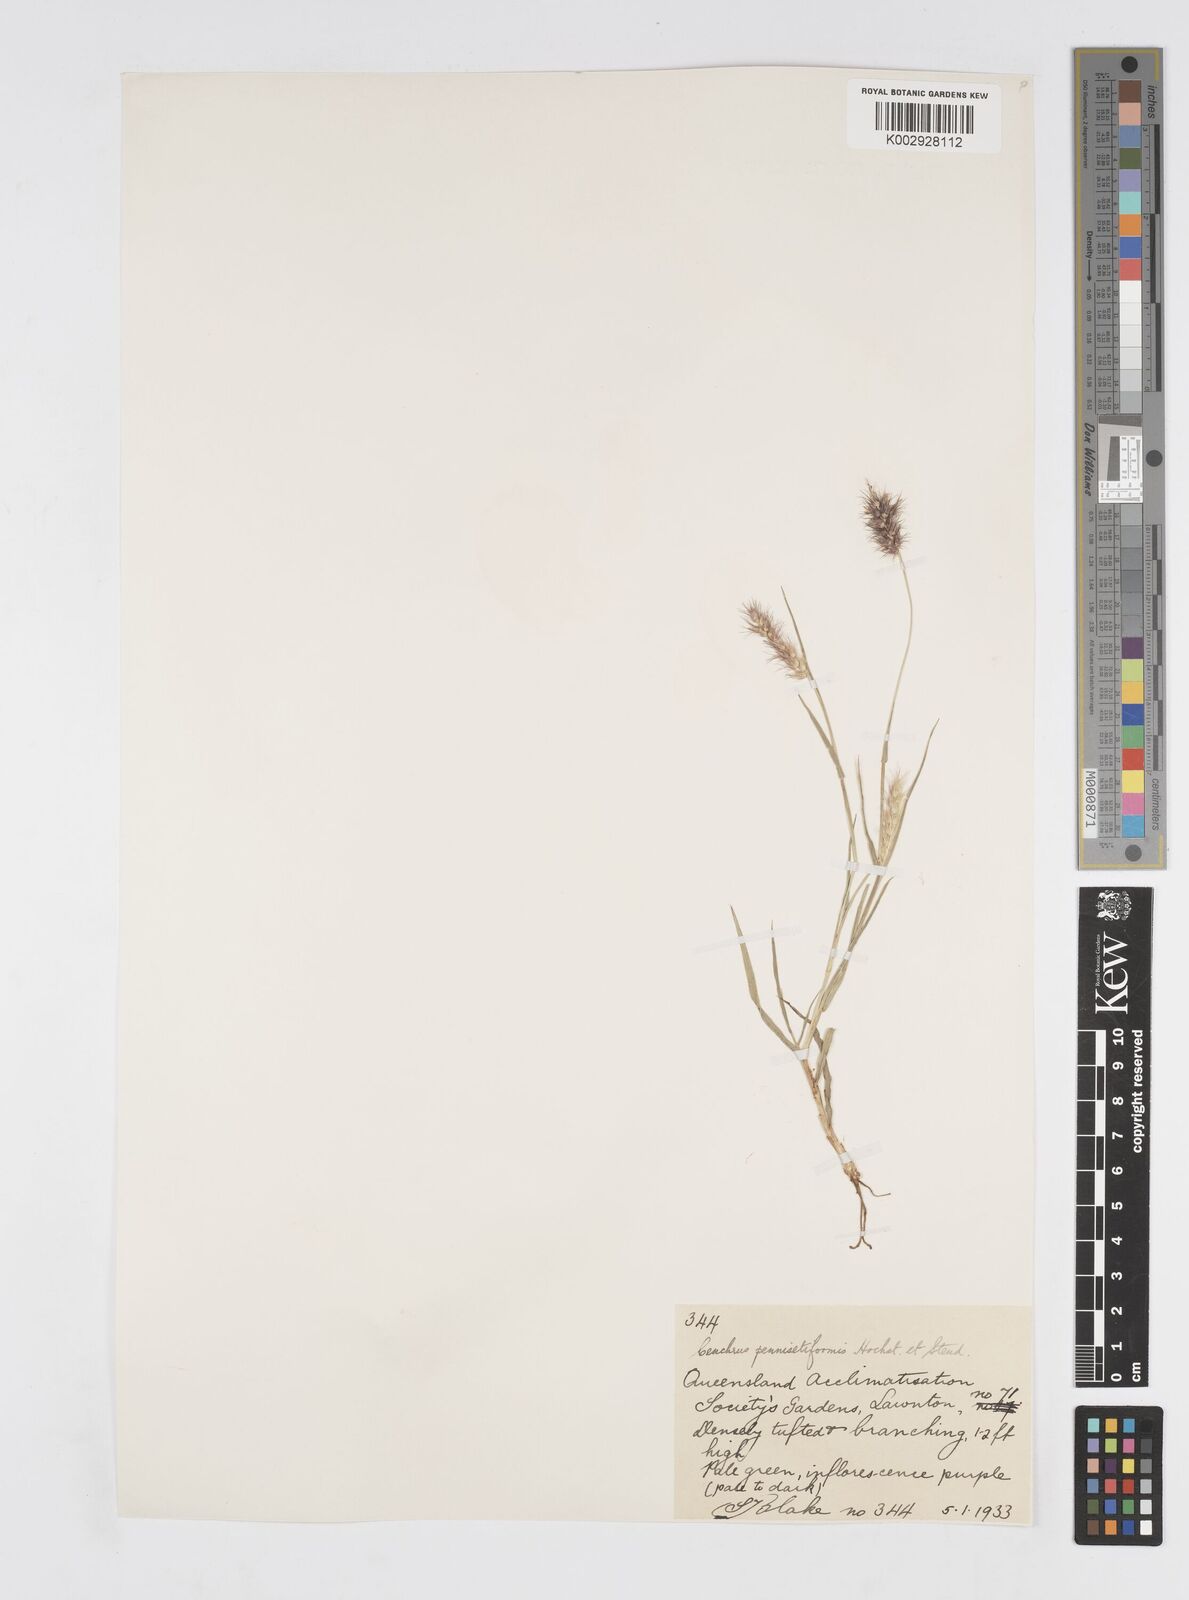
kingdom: Plantae
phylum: Tracheophyta
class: Liliopsida
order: Poales
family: Poaceae
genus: Cenchrus
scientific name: Cenchrus ciliaris
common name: Buffelgrass
